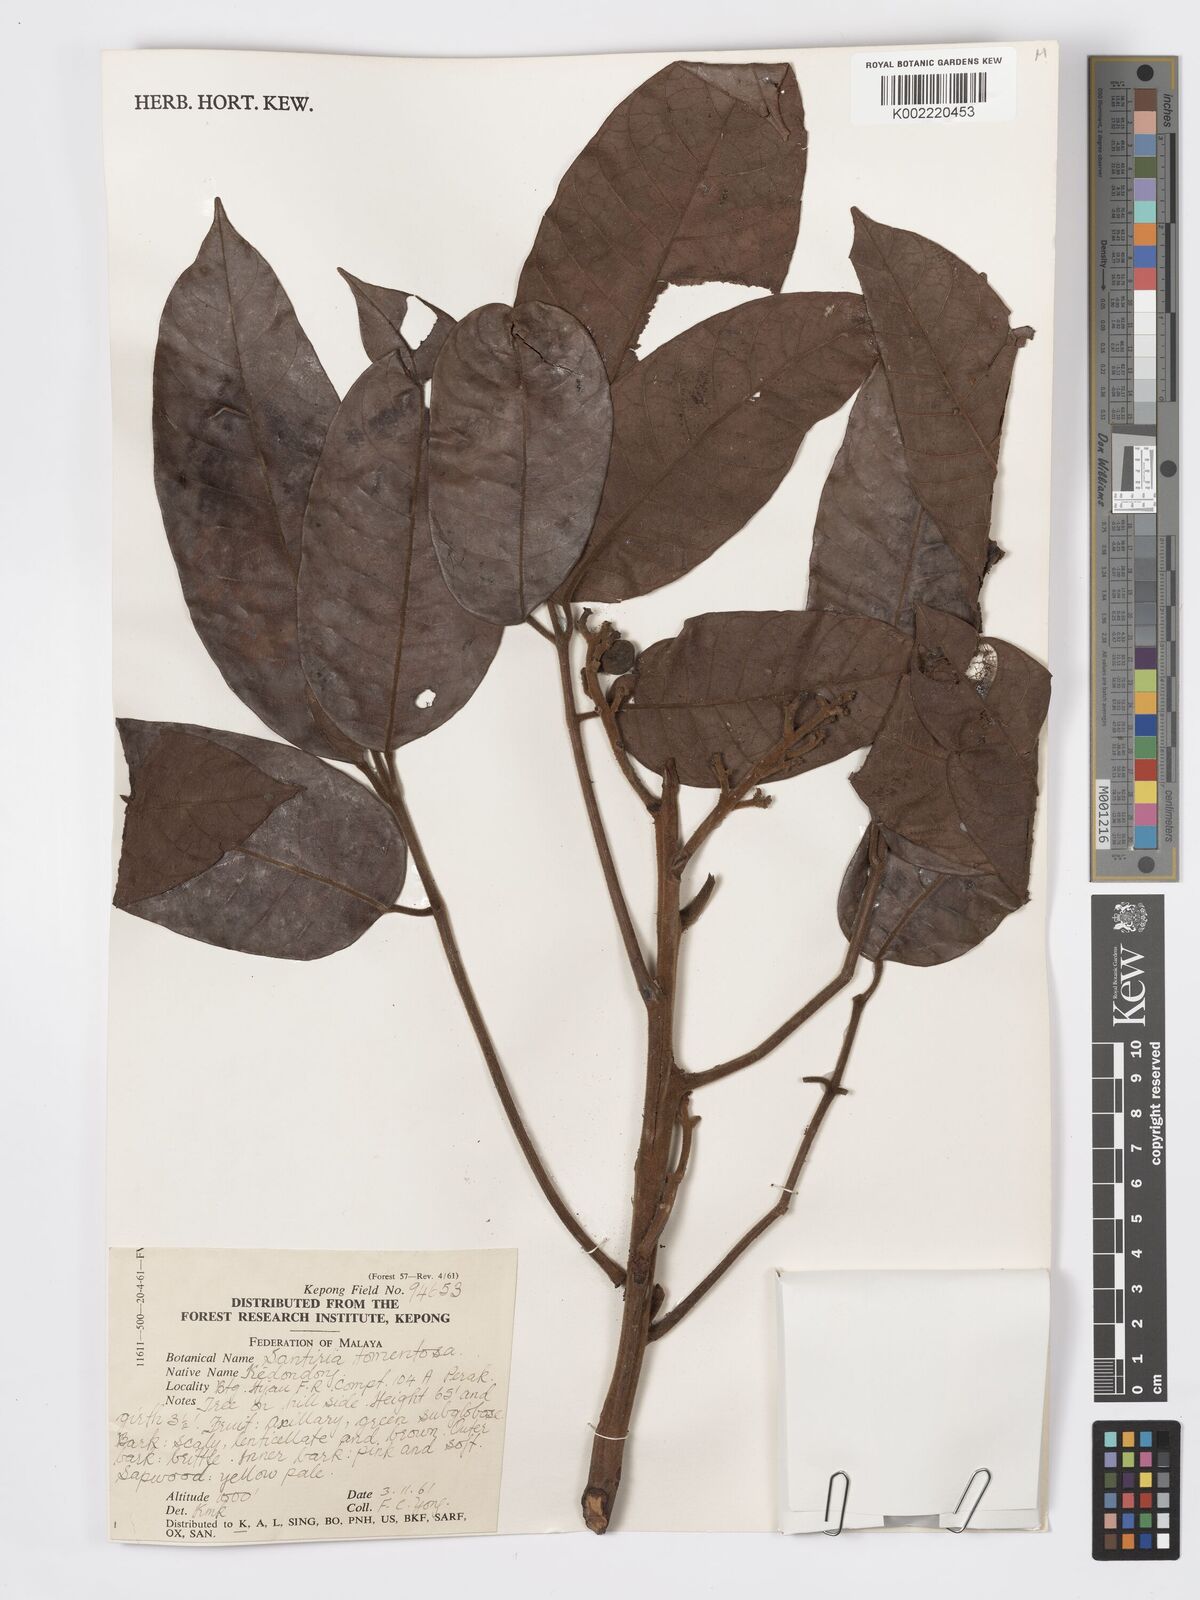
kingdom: Plantae
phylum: Tracheophyta
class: Magnoliopsida
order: Sapindales
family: Burseraceae
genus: Santiria
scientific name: Santiria tomentosa
